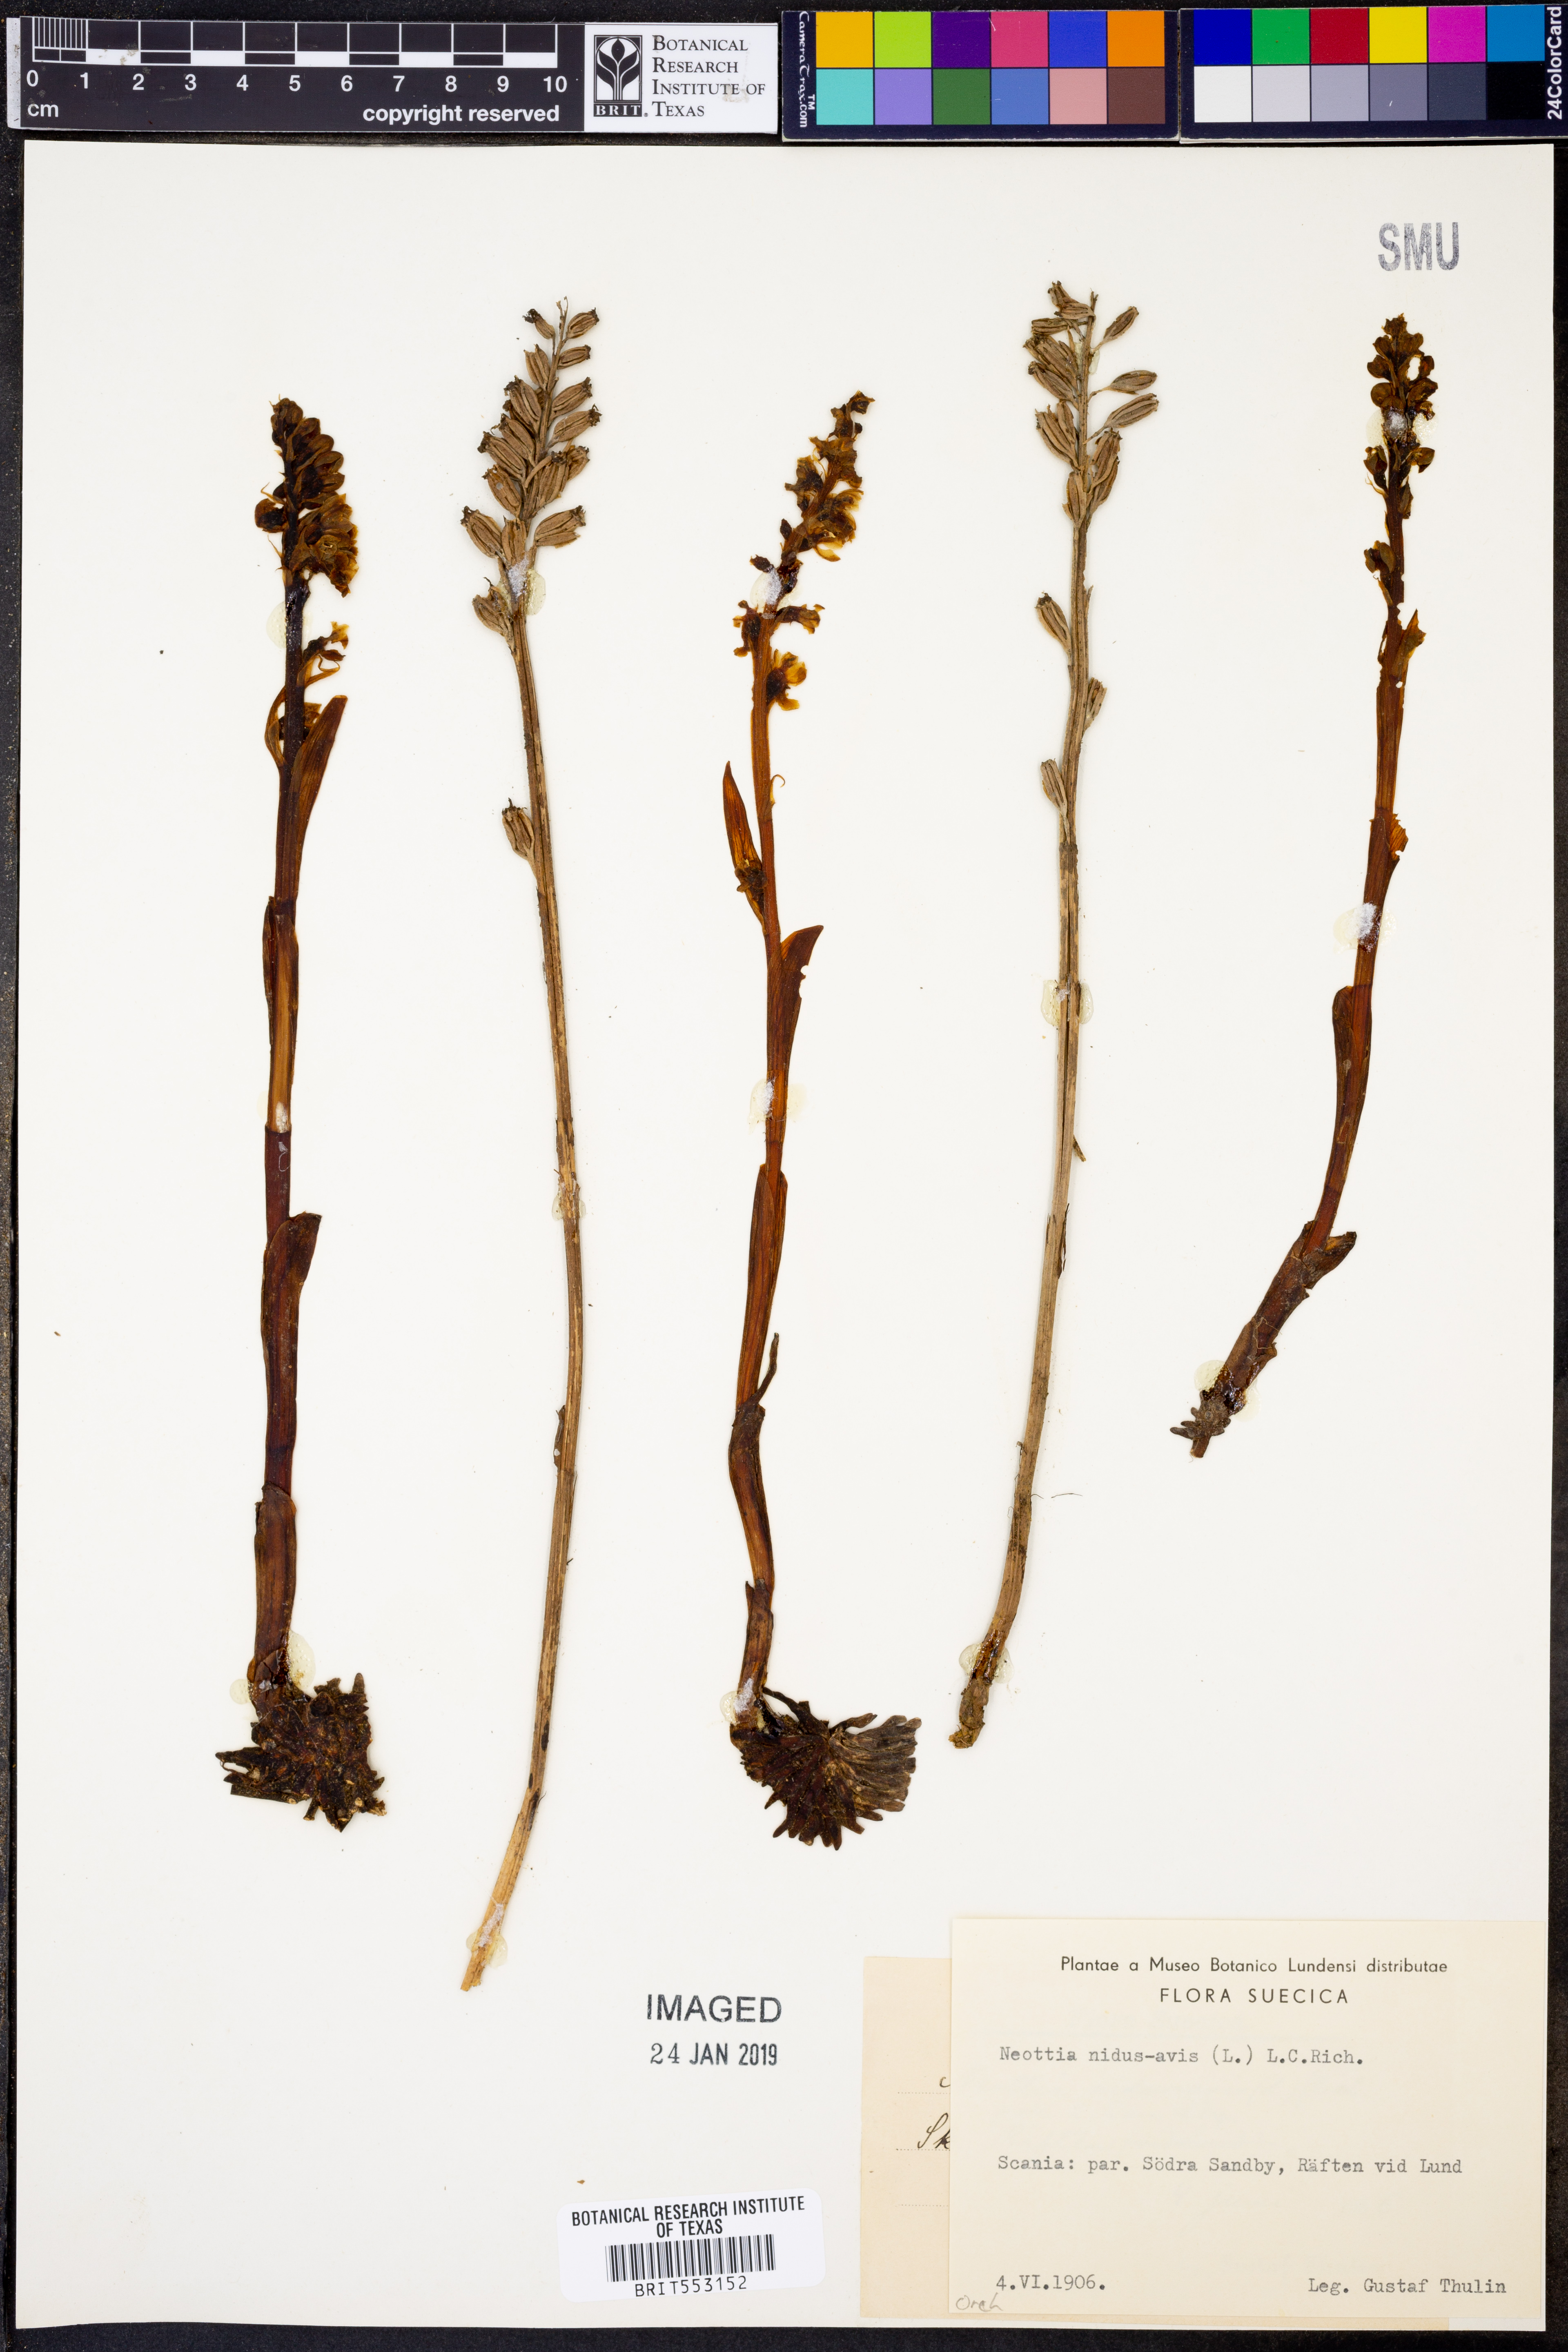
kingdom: Plantae
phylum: Tracheophyta
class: Liliopsida
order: Asparagales
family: Orchidaceae
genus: Neottia
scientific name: Neottia nidus-avis
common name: Bird's-nest orchid
